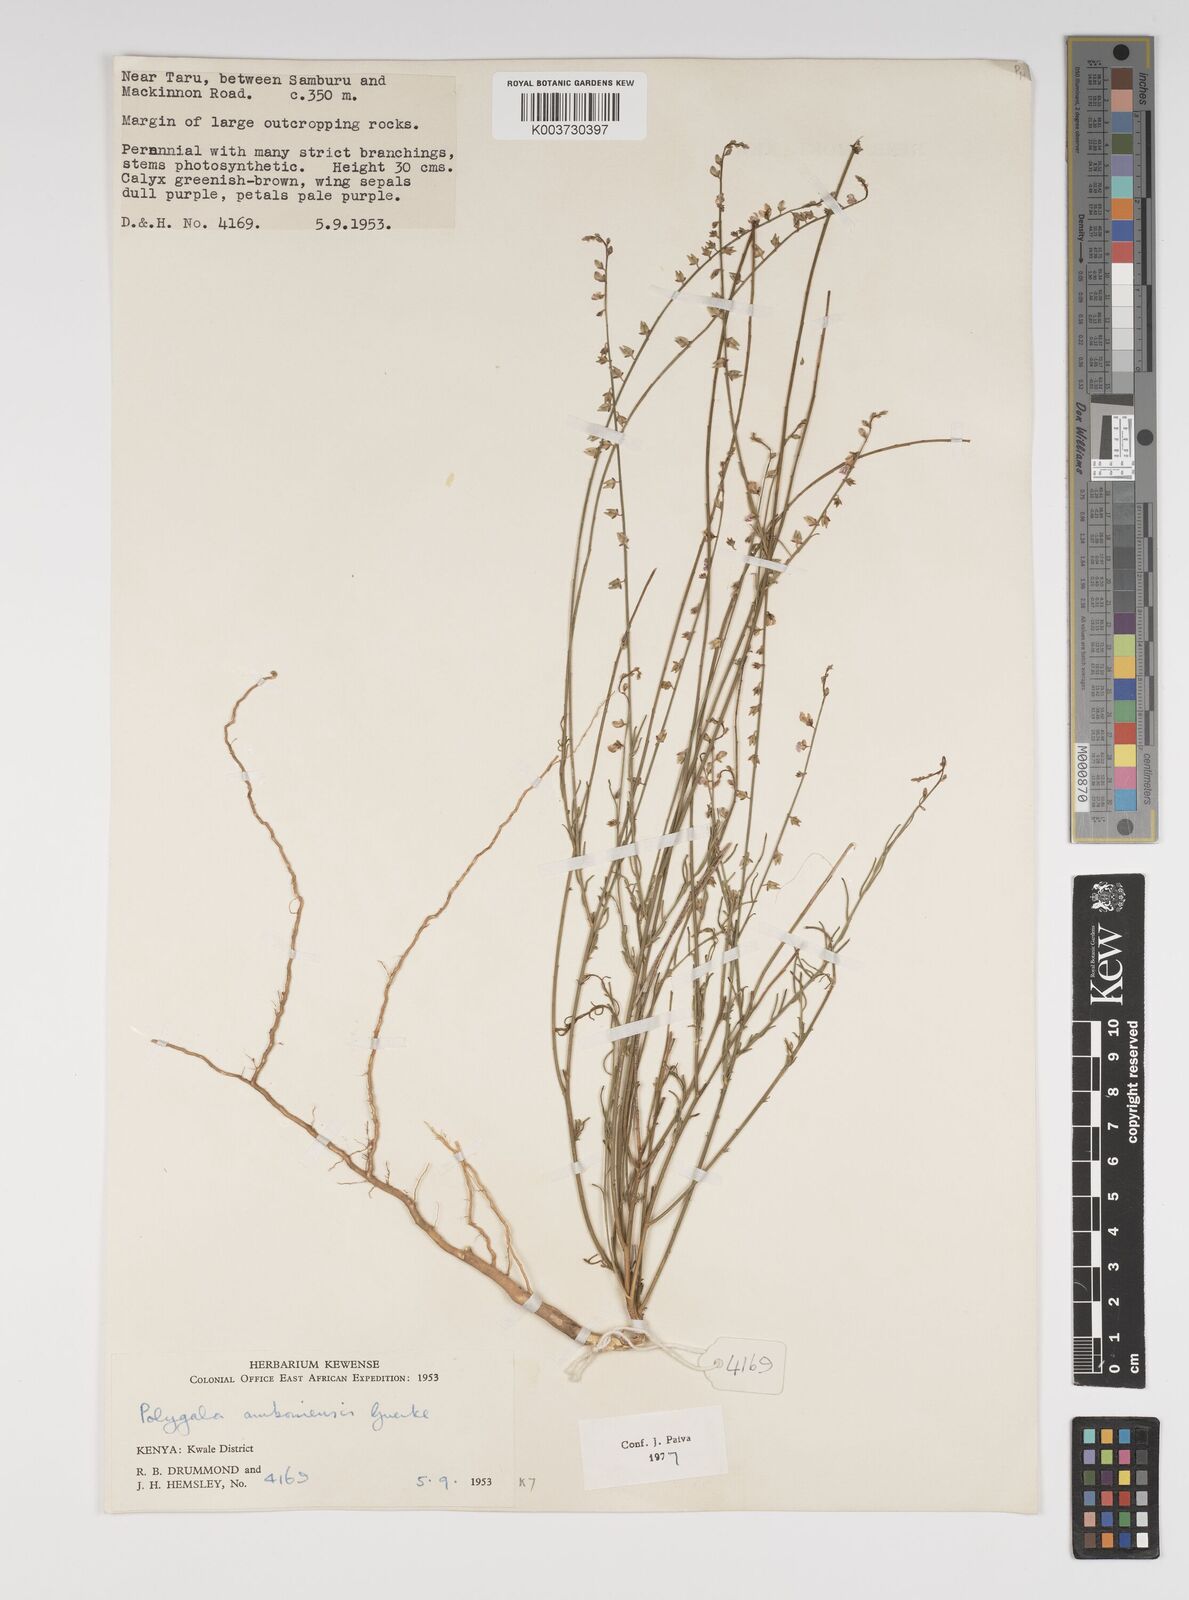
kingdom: Plantae
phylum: Tracheophyta
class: Magnoliopsida
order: Fabales
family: Polygalaceae
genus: Polygala
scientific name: Polygala amboniensis
